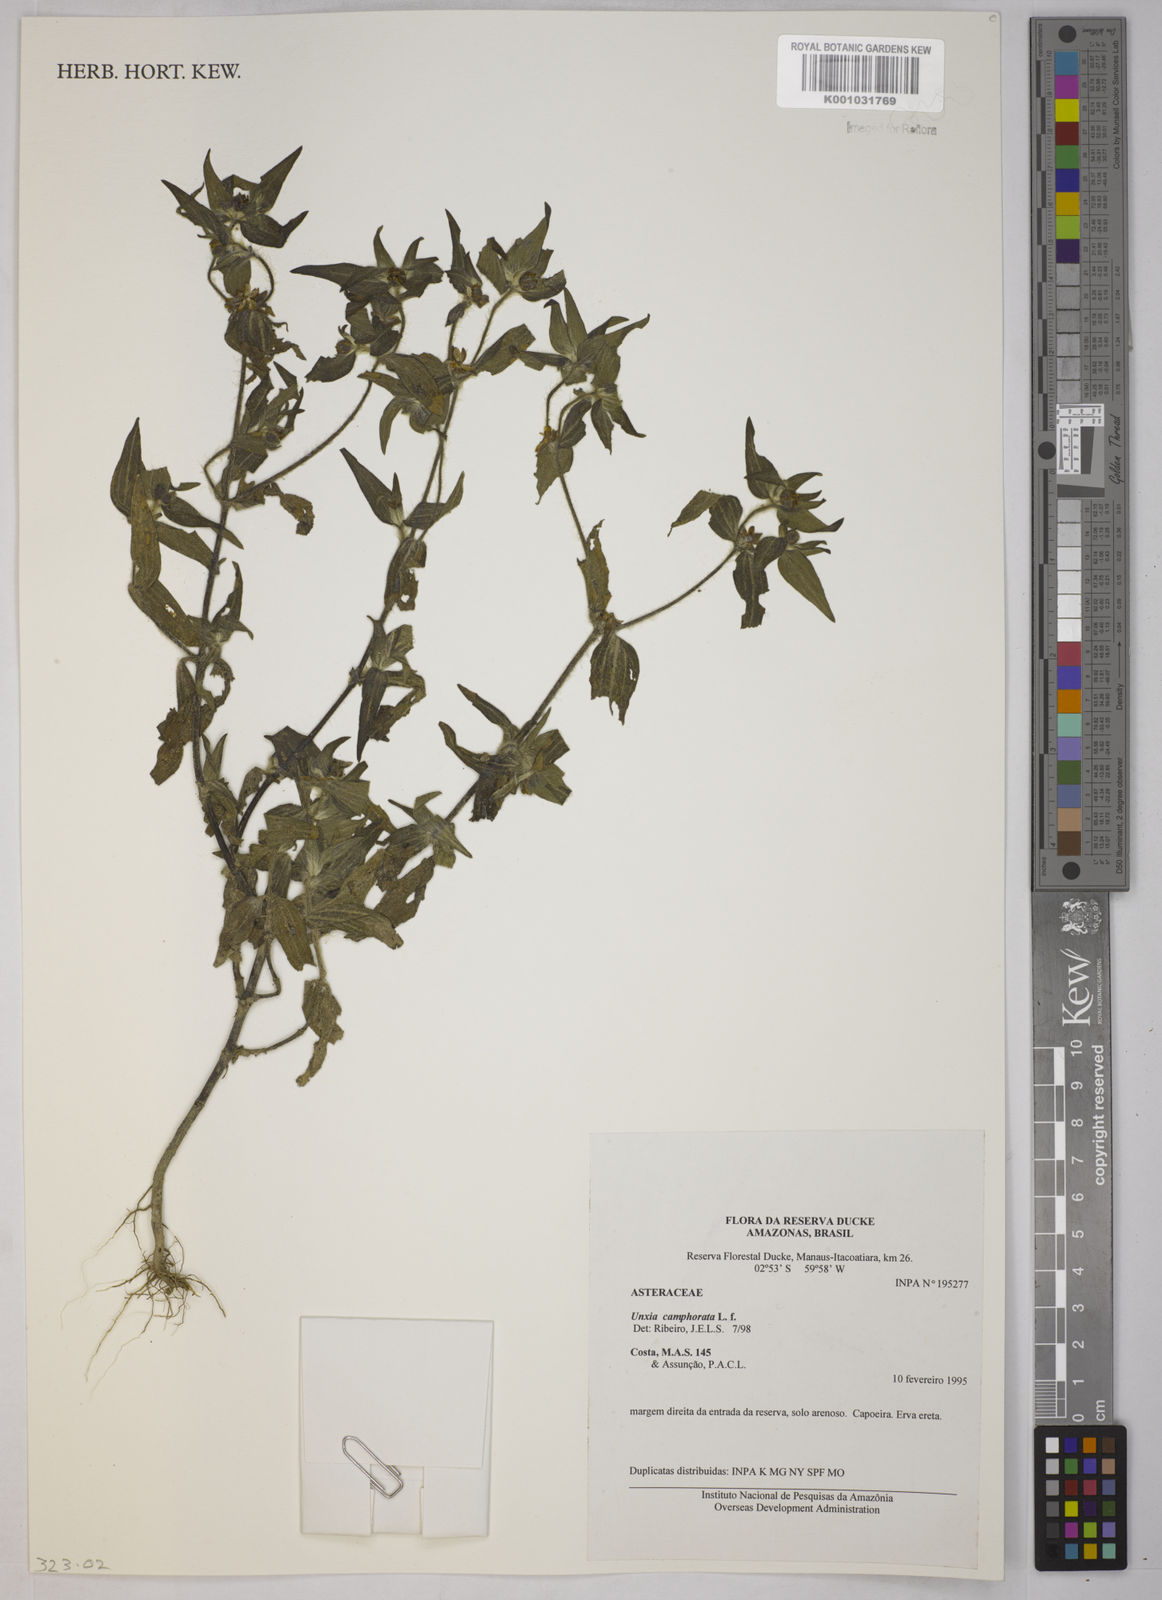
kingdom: Plantae
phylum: Tracheophyta
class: Magnoliopsida
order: Asterales
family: Asteraceae
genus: Unxia
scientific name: Unxia camphorata
